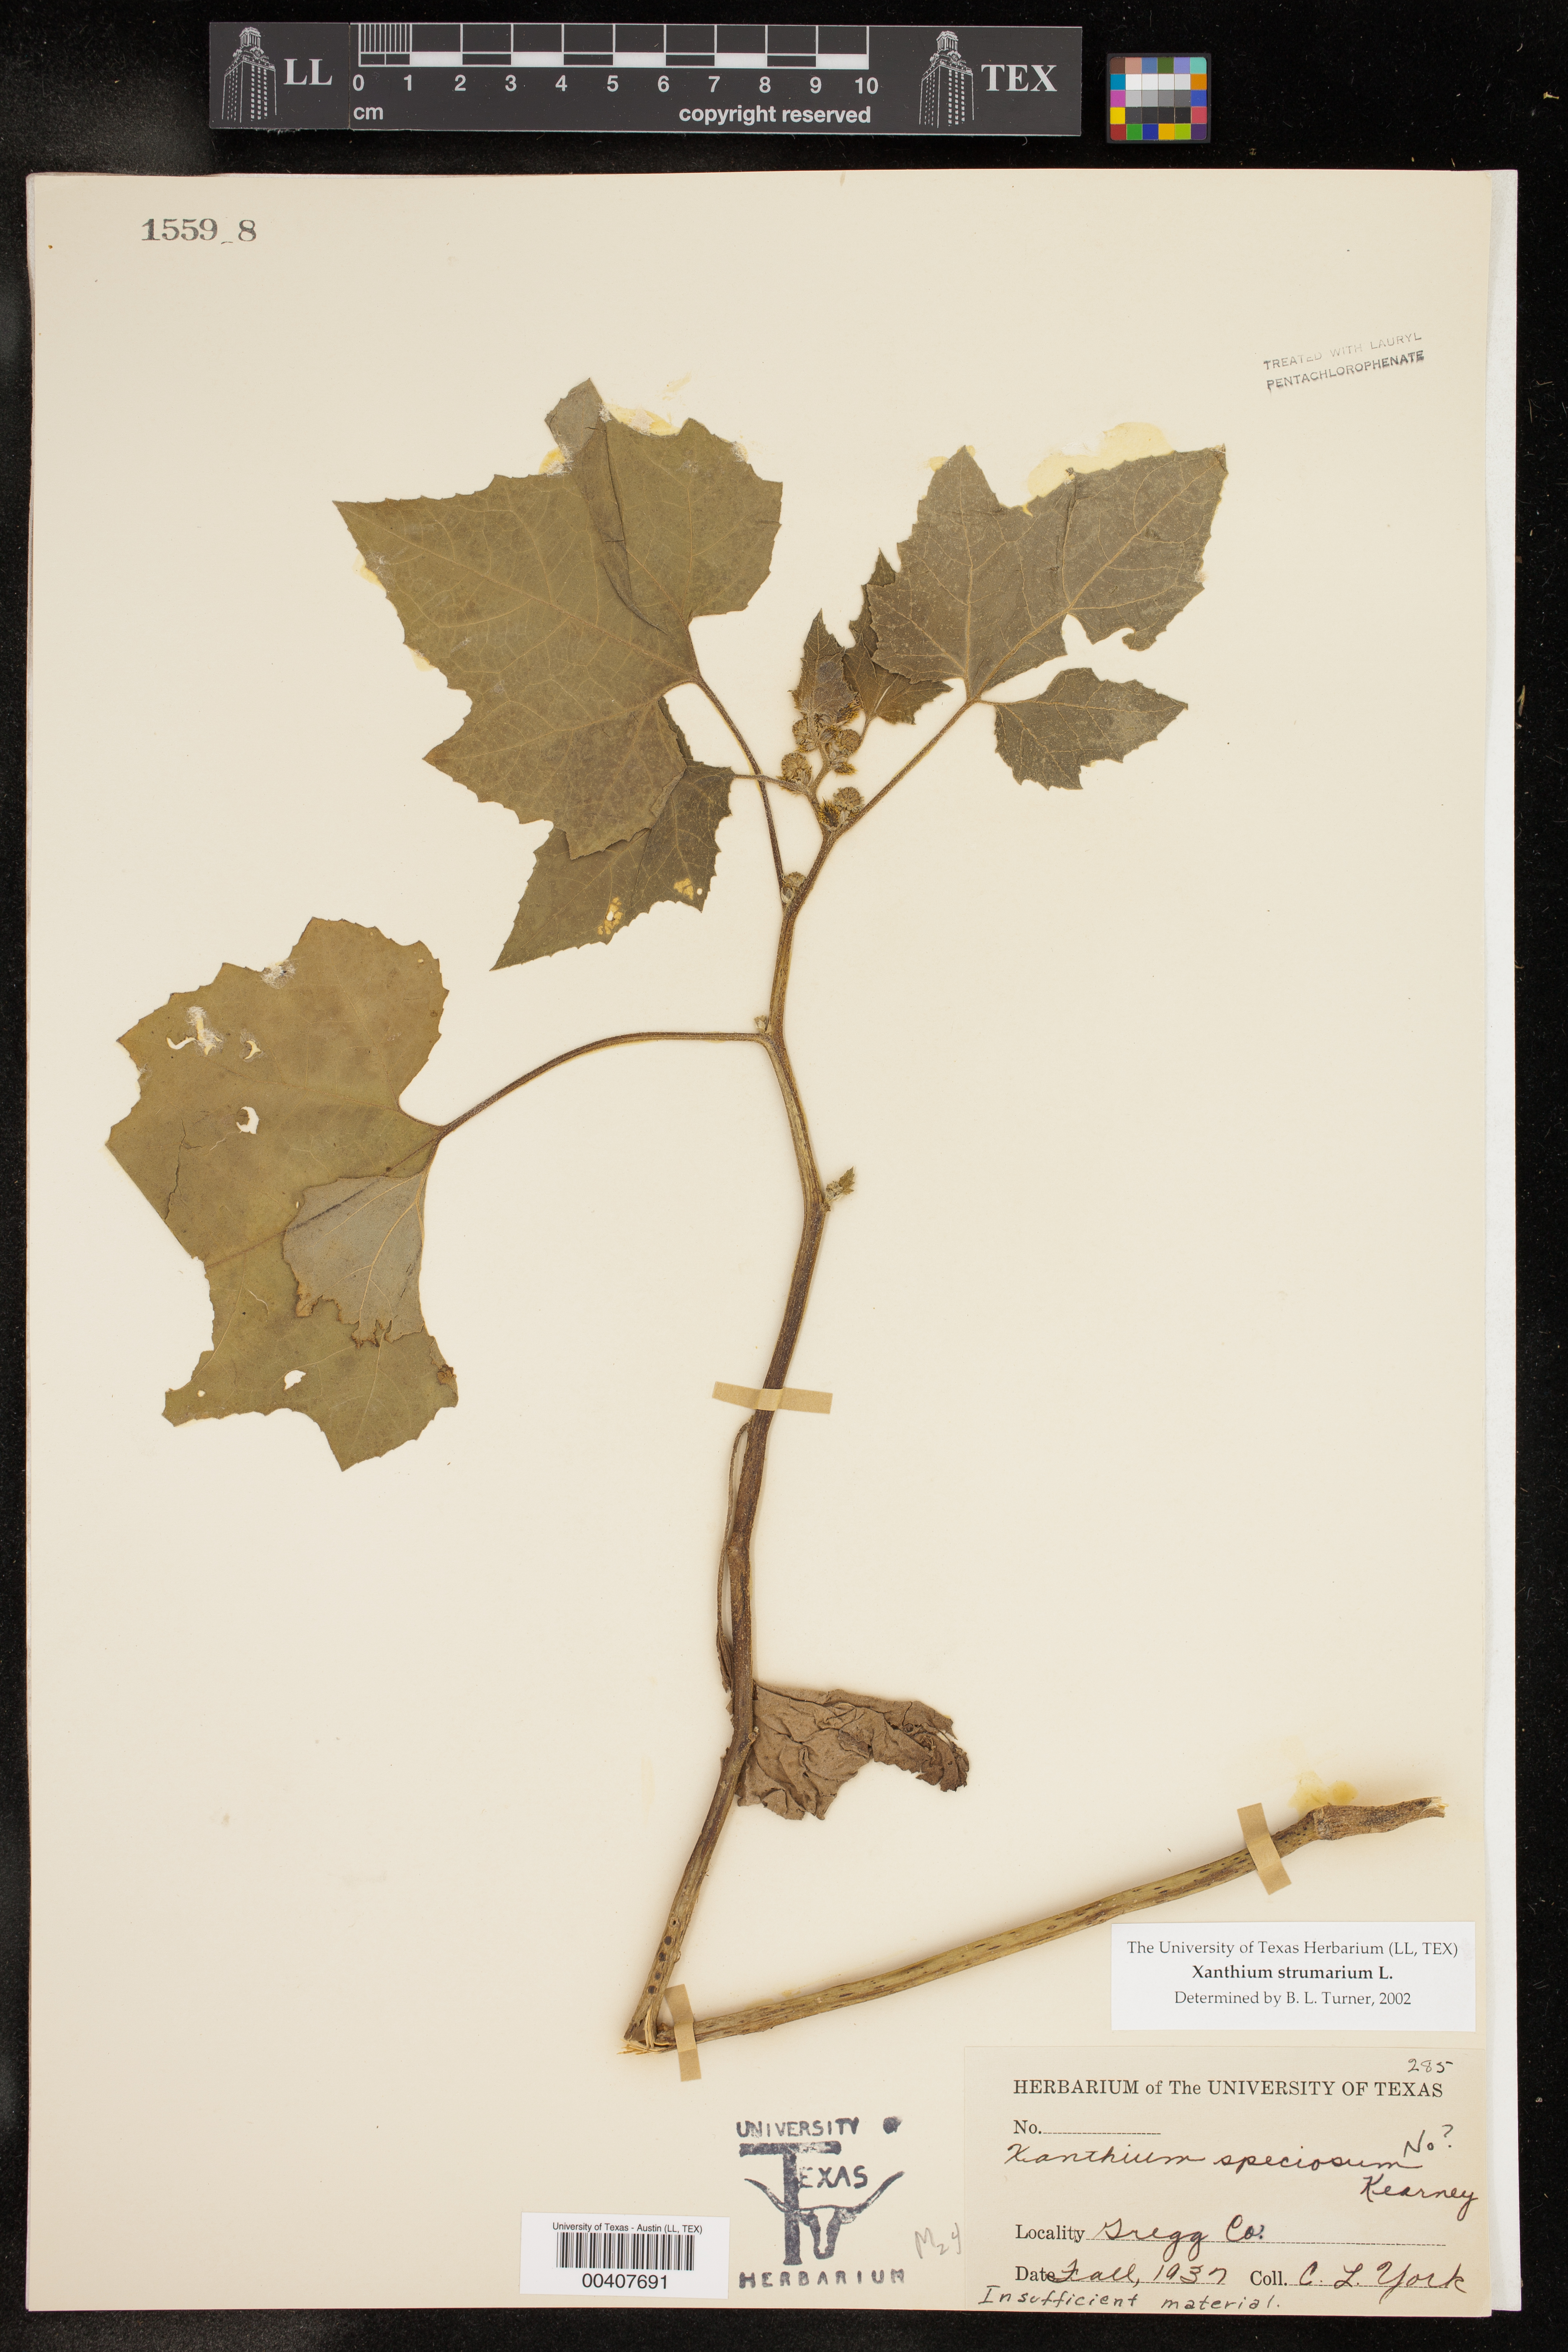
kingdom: Plantae
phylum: Tracheophyta
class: Magnoliopsida
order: Asterales
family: Asteraceae
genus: Xanthium
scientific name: Xanthium strumarium
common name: Rough cocklebur
